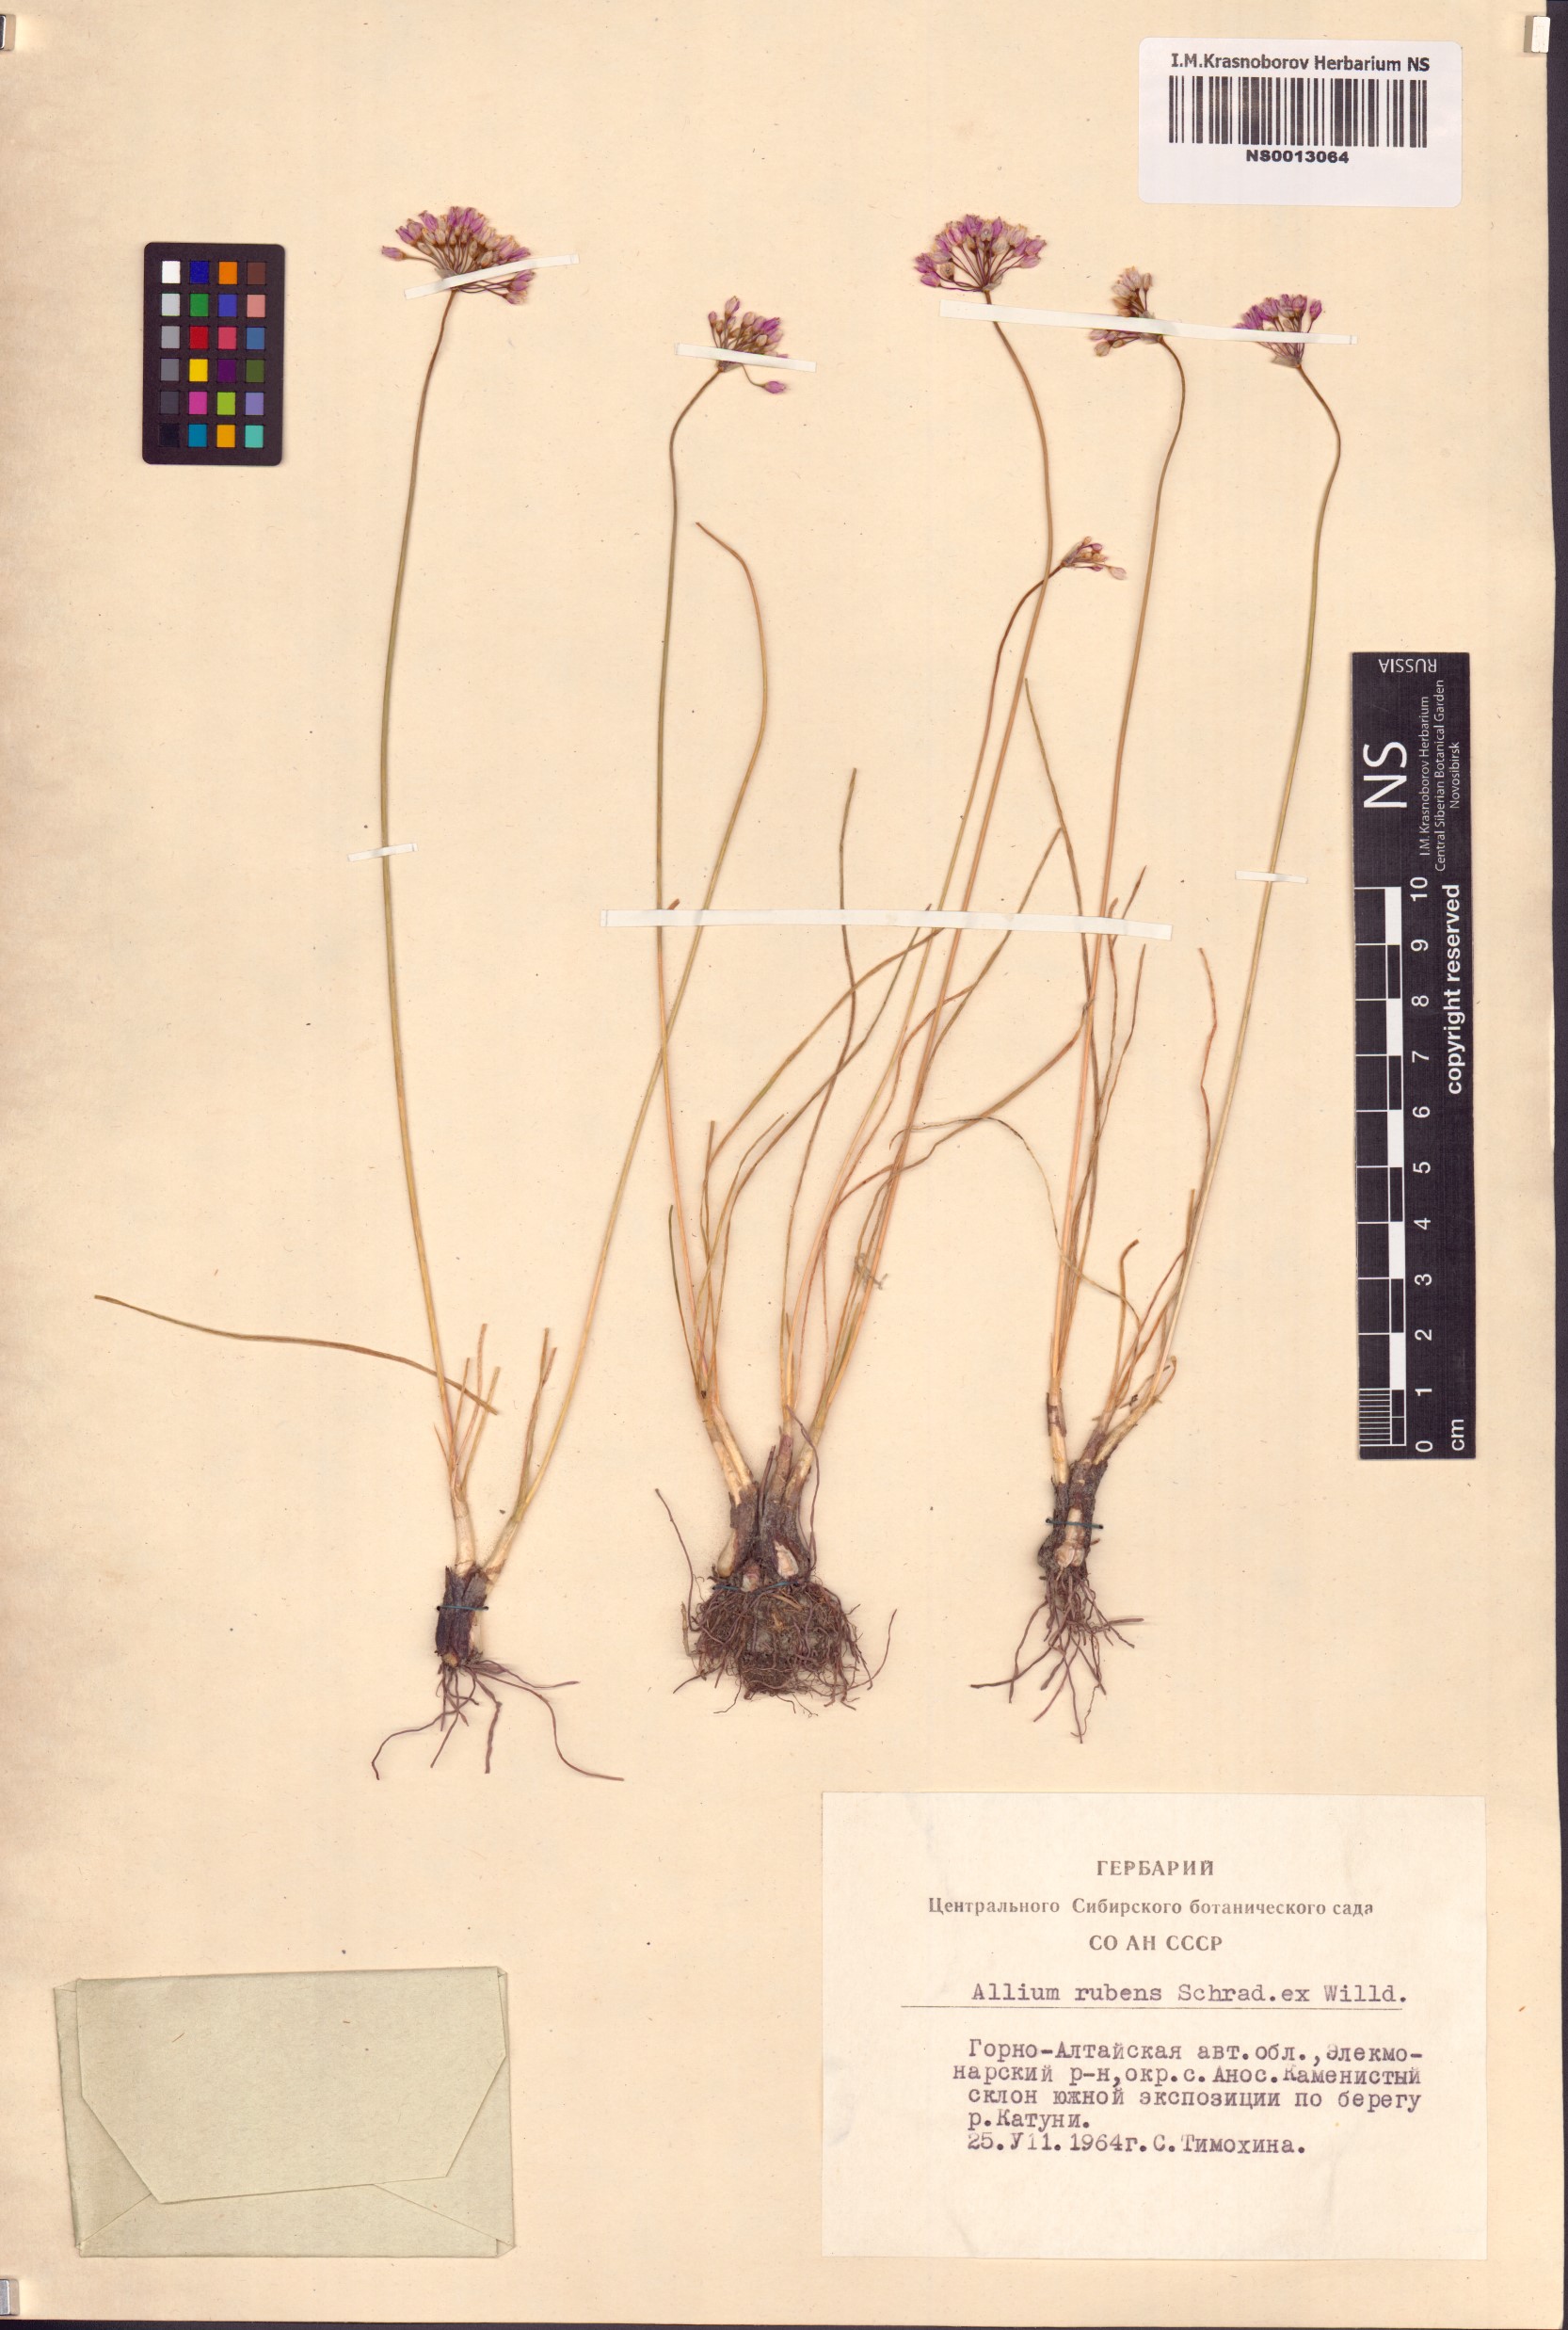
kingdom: Plantae
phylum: Tracheophyta
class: Liliopsida
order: Asparagales
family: Amaryllidaceae
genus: Allium
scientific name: Allium rubens
